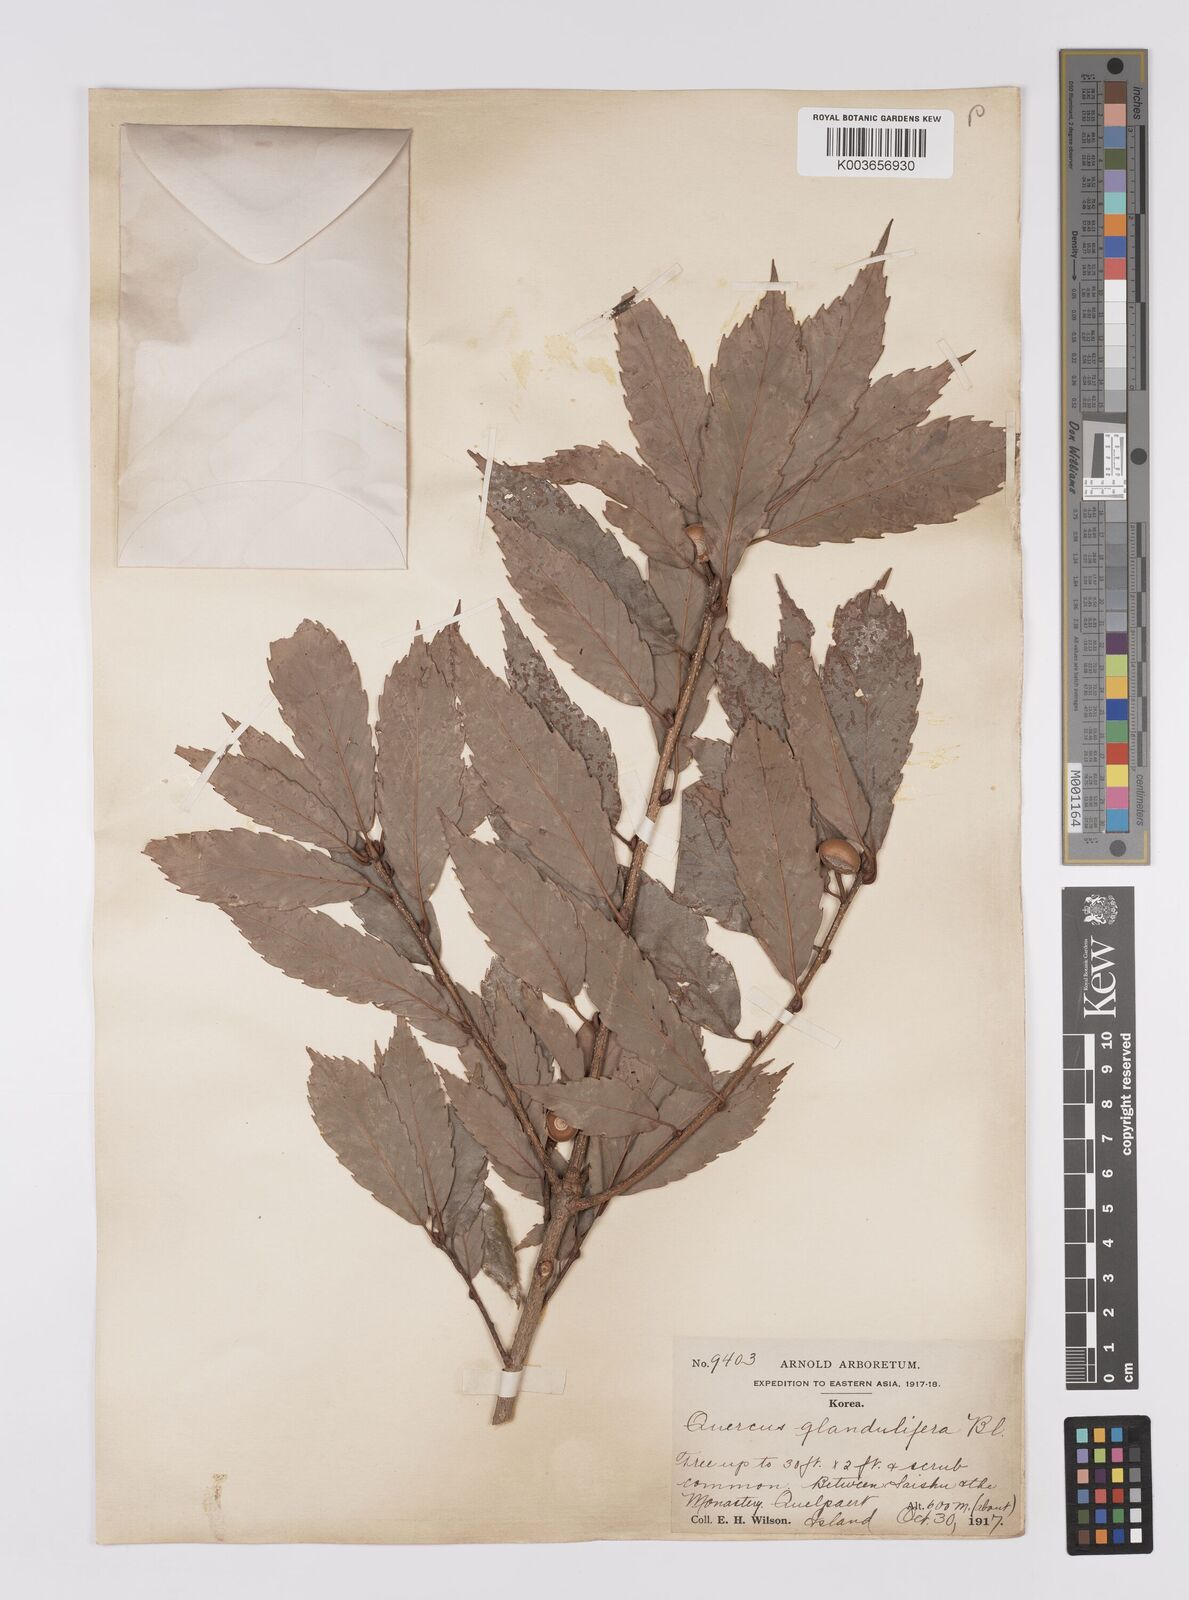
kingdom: Plantae
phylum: Tracheophyta
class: Magnoliopsida
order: Fagales
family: Fagaceae
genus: Quercus
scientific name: Quercus serrata
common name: Bao li
